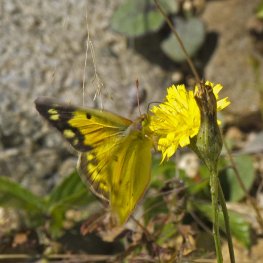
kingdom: Animalia
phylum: Arthropoda
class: Insecta
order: Lepidoptera
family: Pieridae
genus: Colias
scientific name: Colias eurytheme
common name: Orange Sulphur
